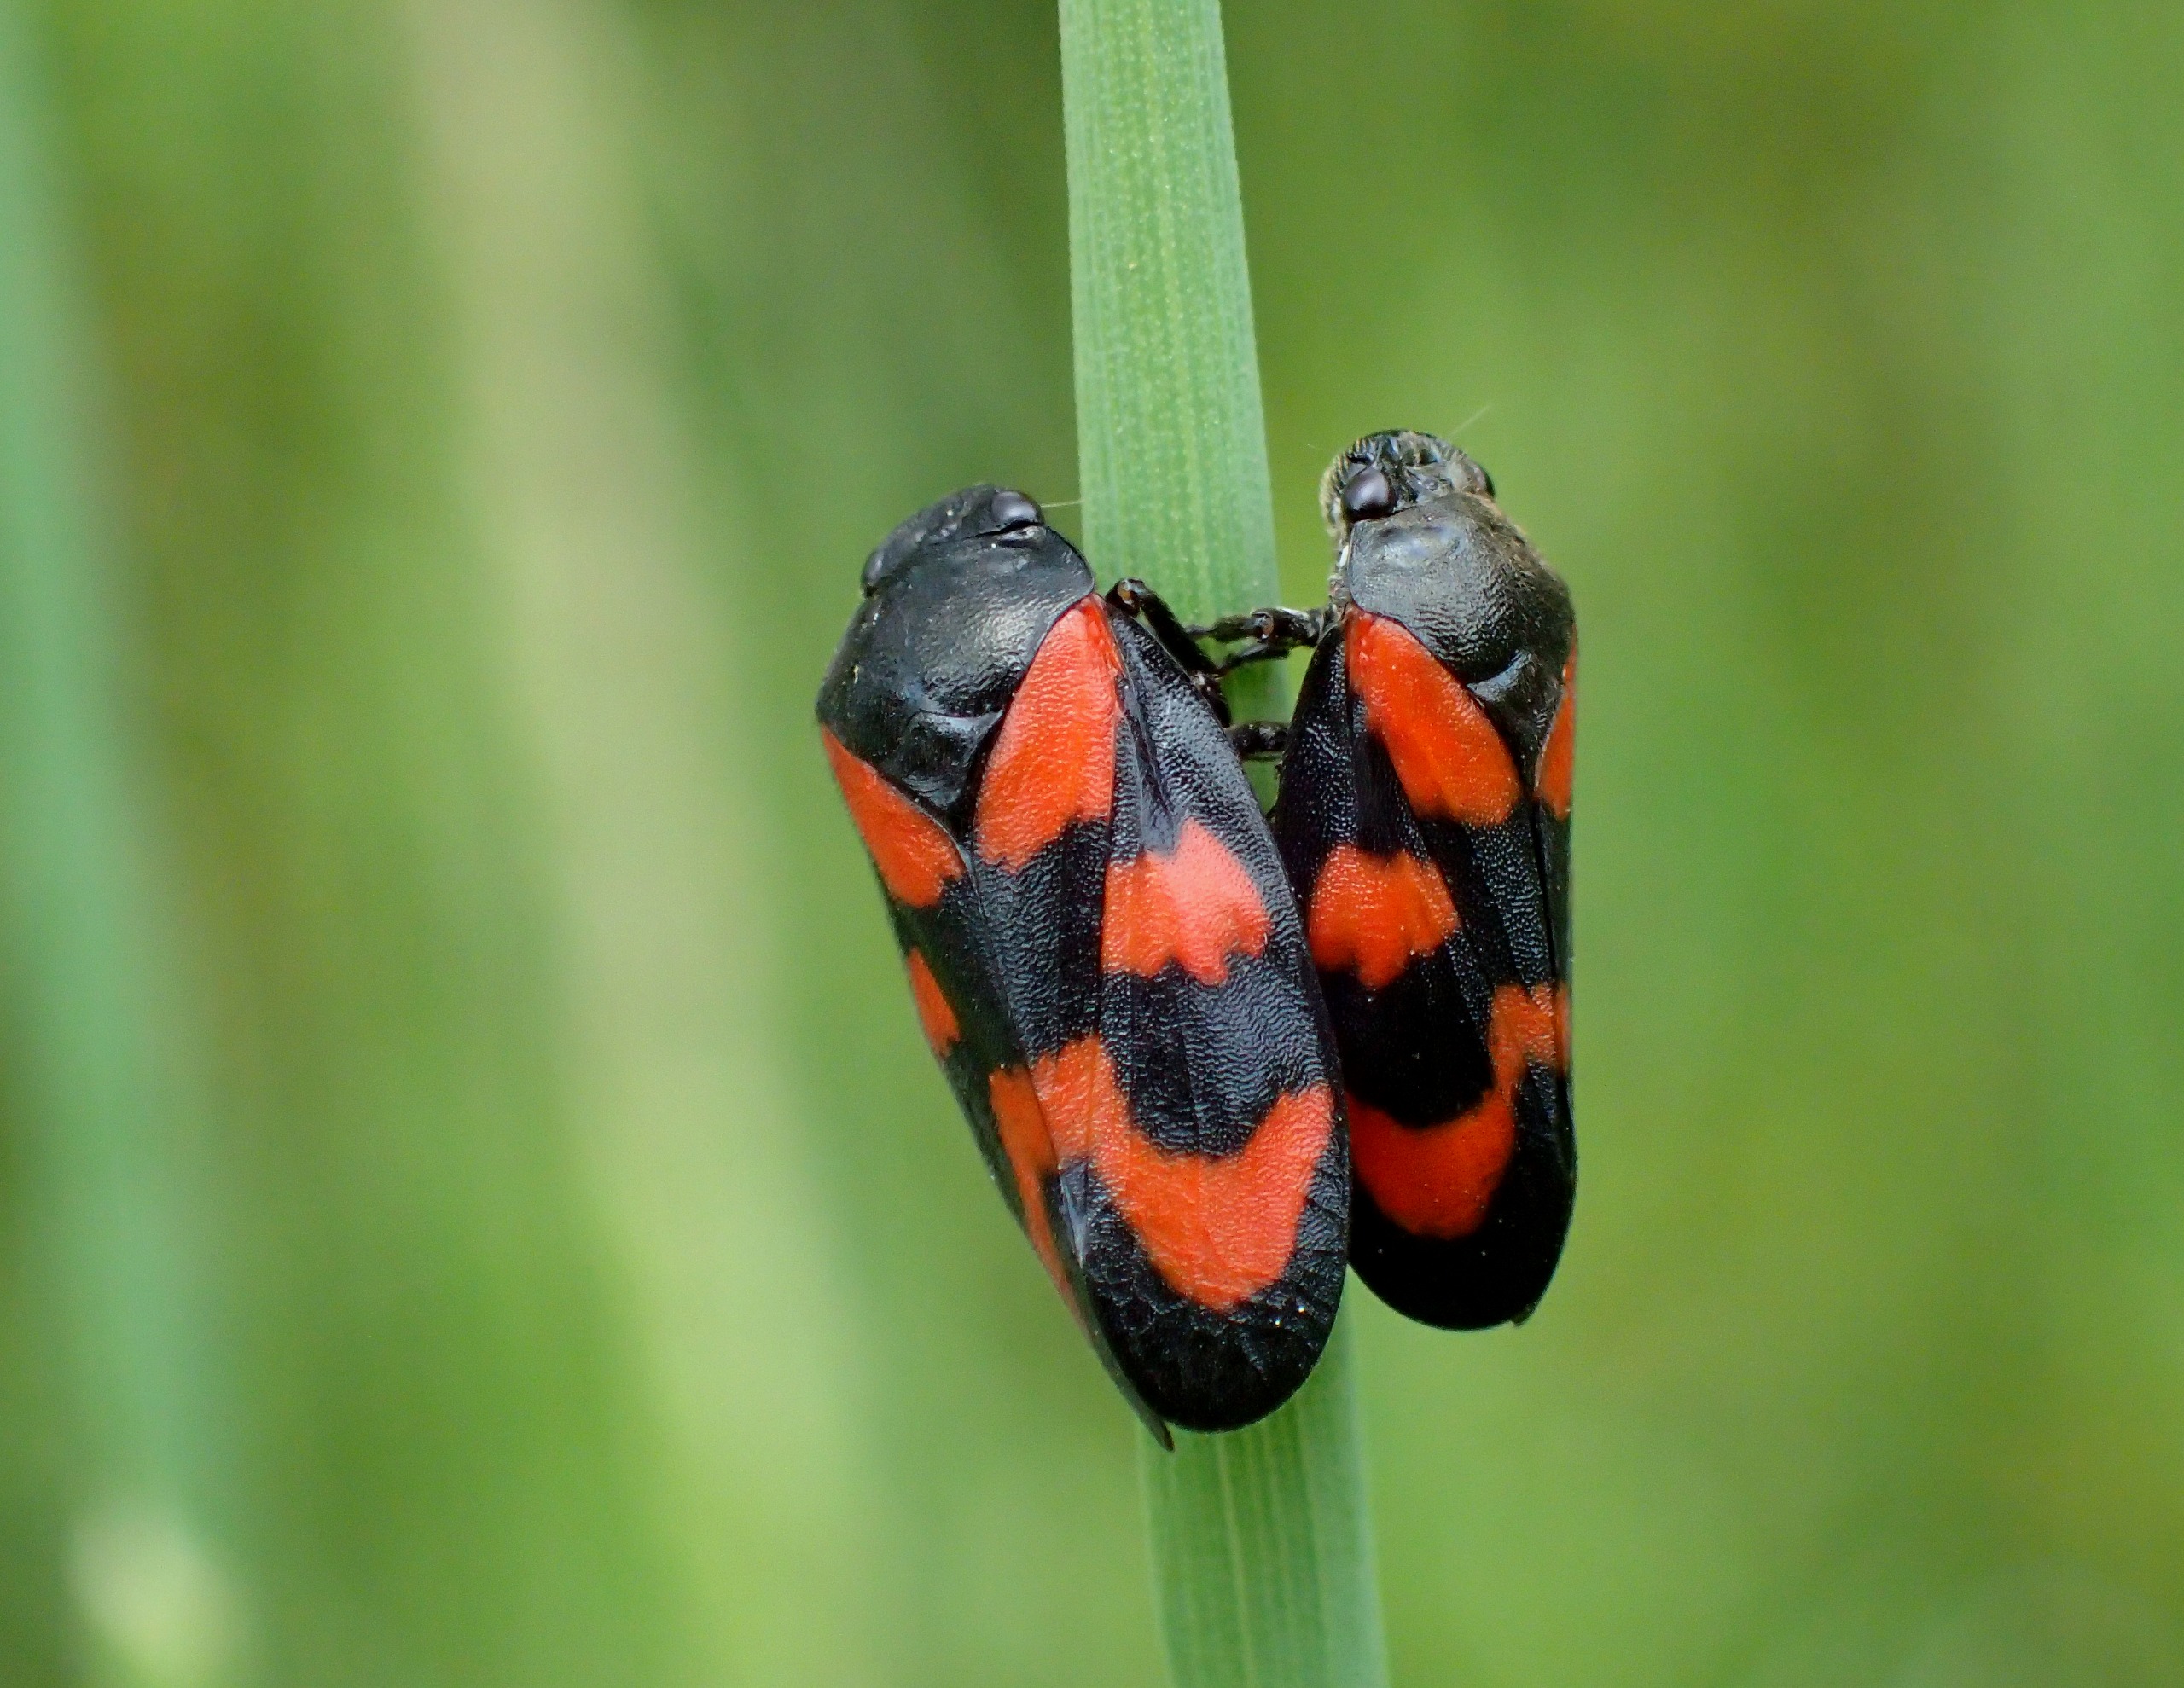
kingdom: Animalia
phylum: Arthropoda
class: Insecta
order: Hemiptera
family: Cercopidae
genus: Cercopis
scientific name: Cercopis vulnerata
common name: Blodcikade
